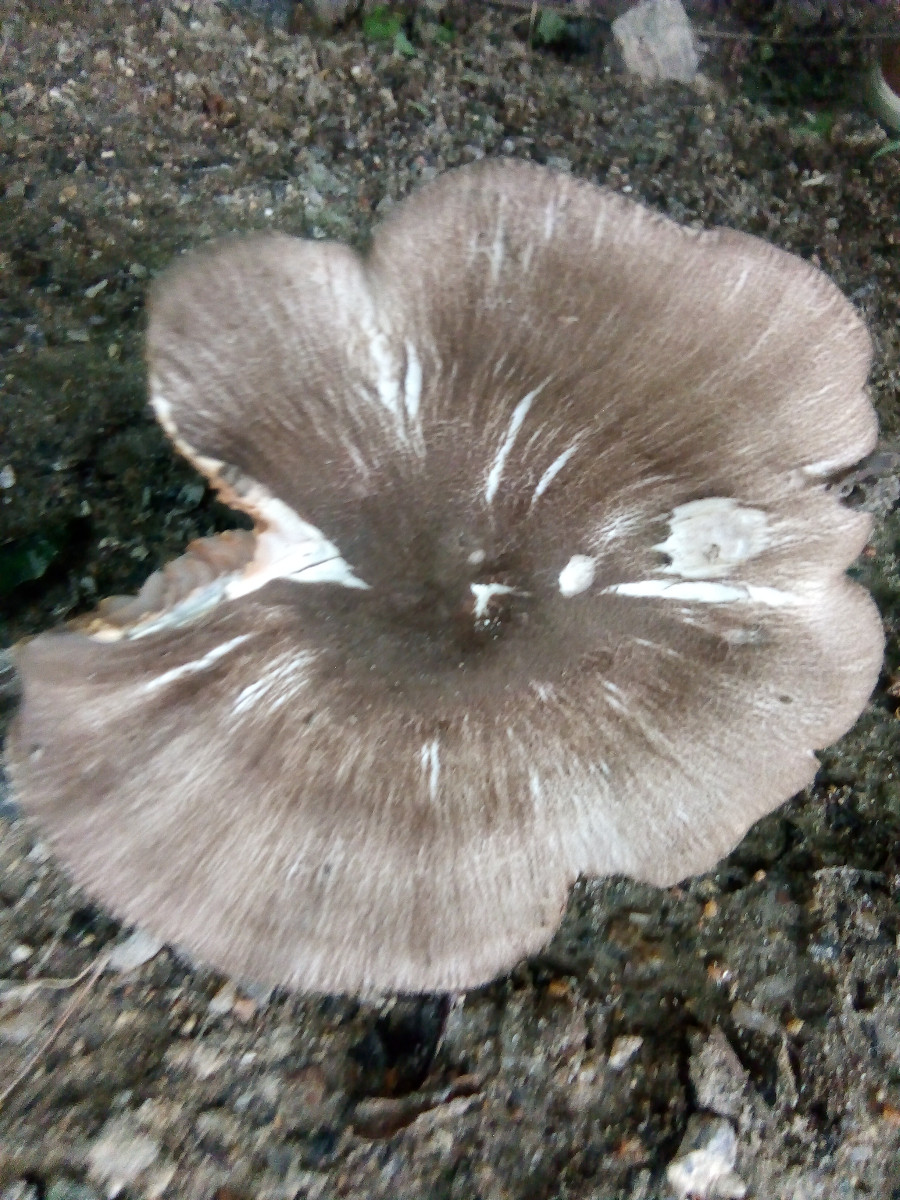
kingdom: Fungi
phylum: Basidiomycota
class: Agaricomycetes
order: Agaricales
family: Pluteaceae
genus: Pluteus
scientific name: Pluteus
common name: gråfibret skærmhat
